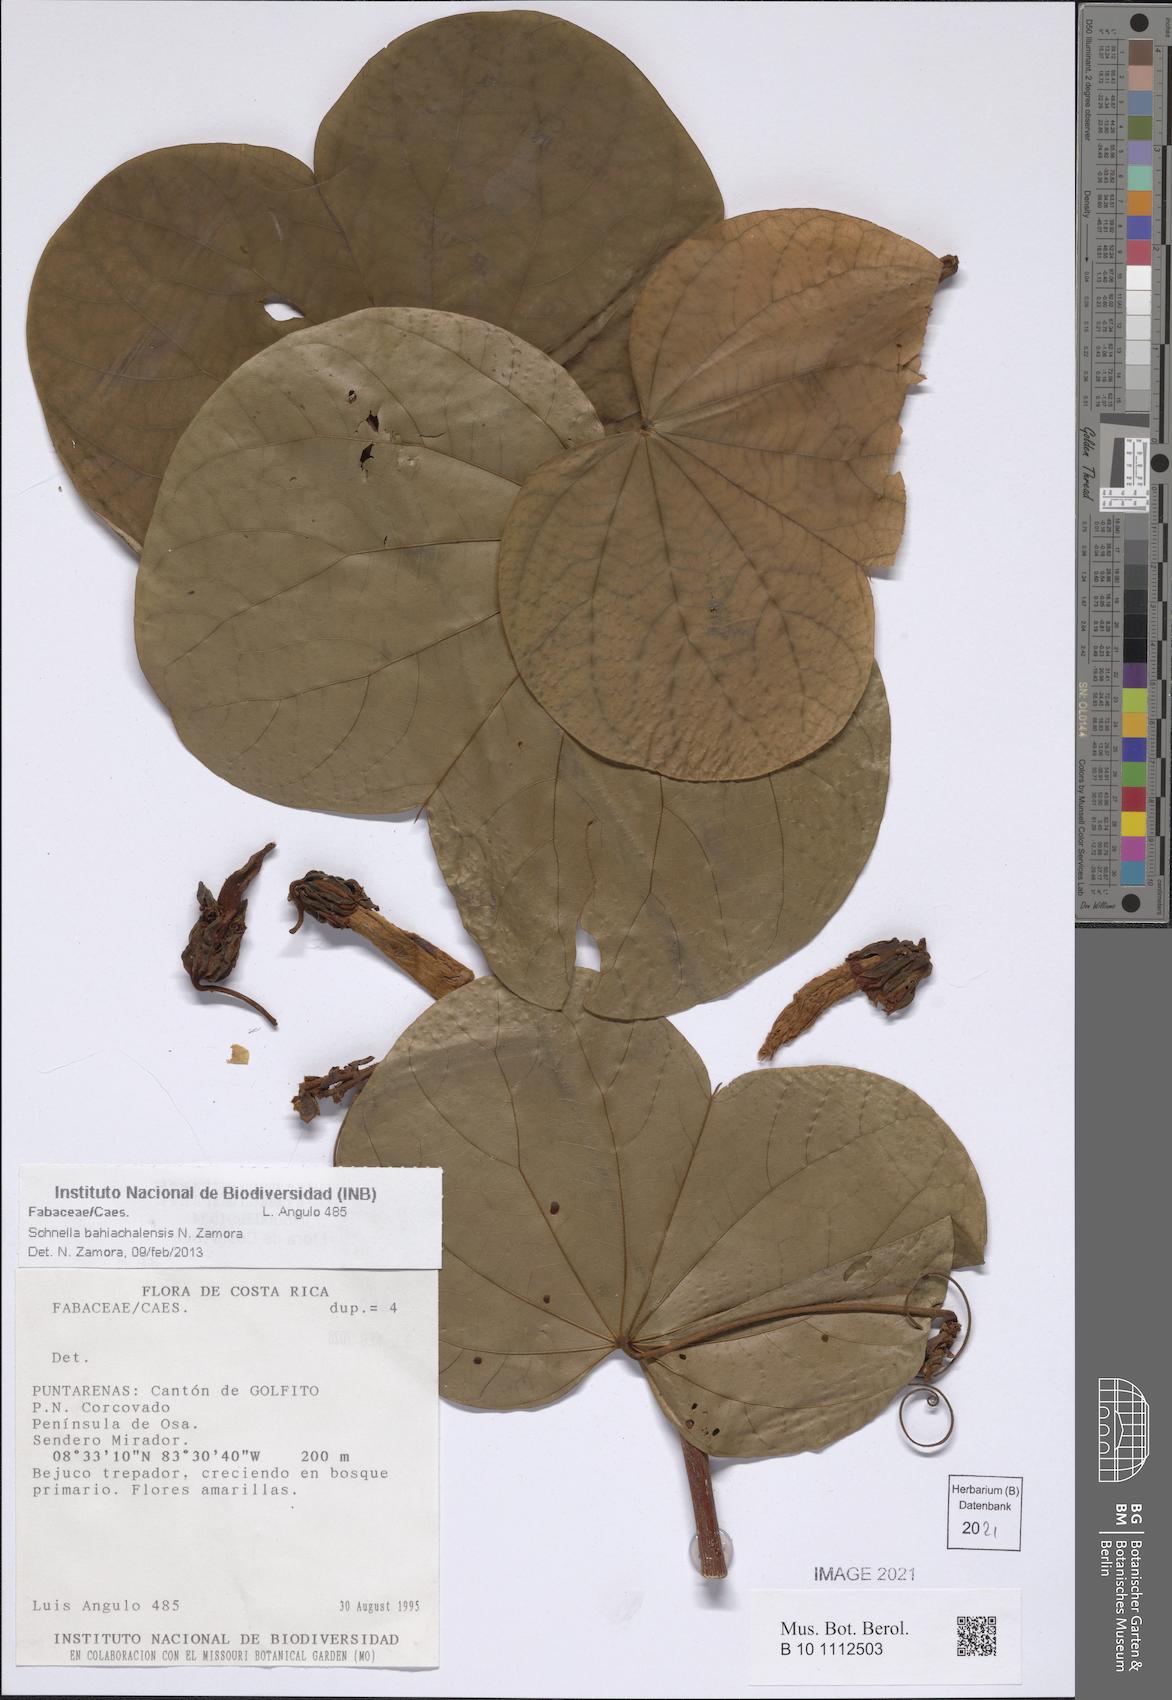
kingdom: Plantae
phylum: Tracheophyta
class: Magnoliopsida
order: Fabales
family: Fabaceae
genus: Schnella
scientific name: Schnella bahiachalensis
